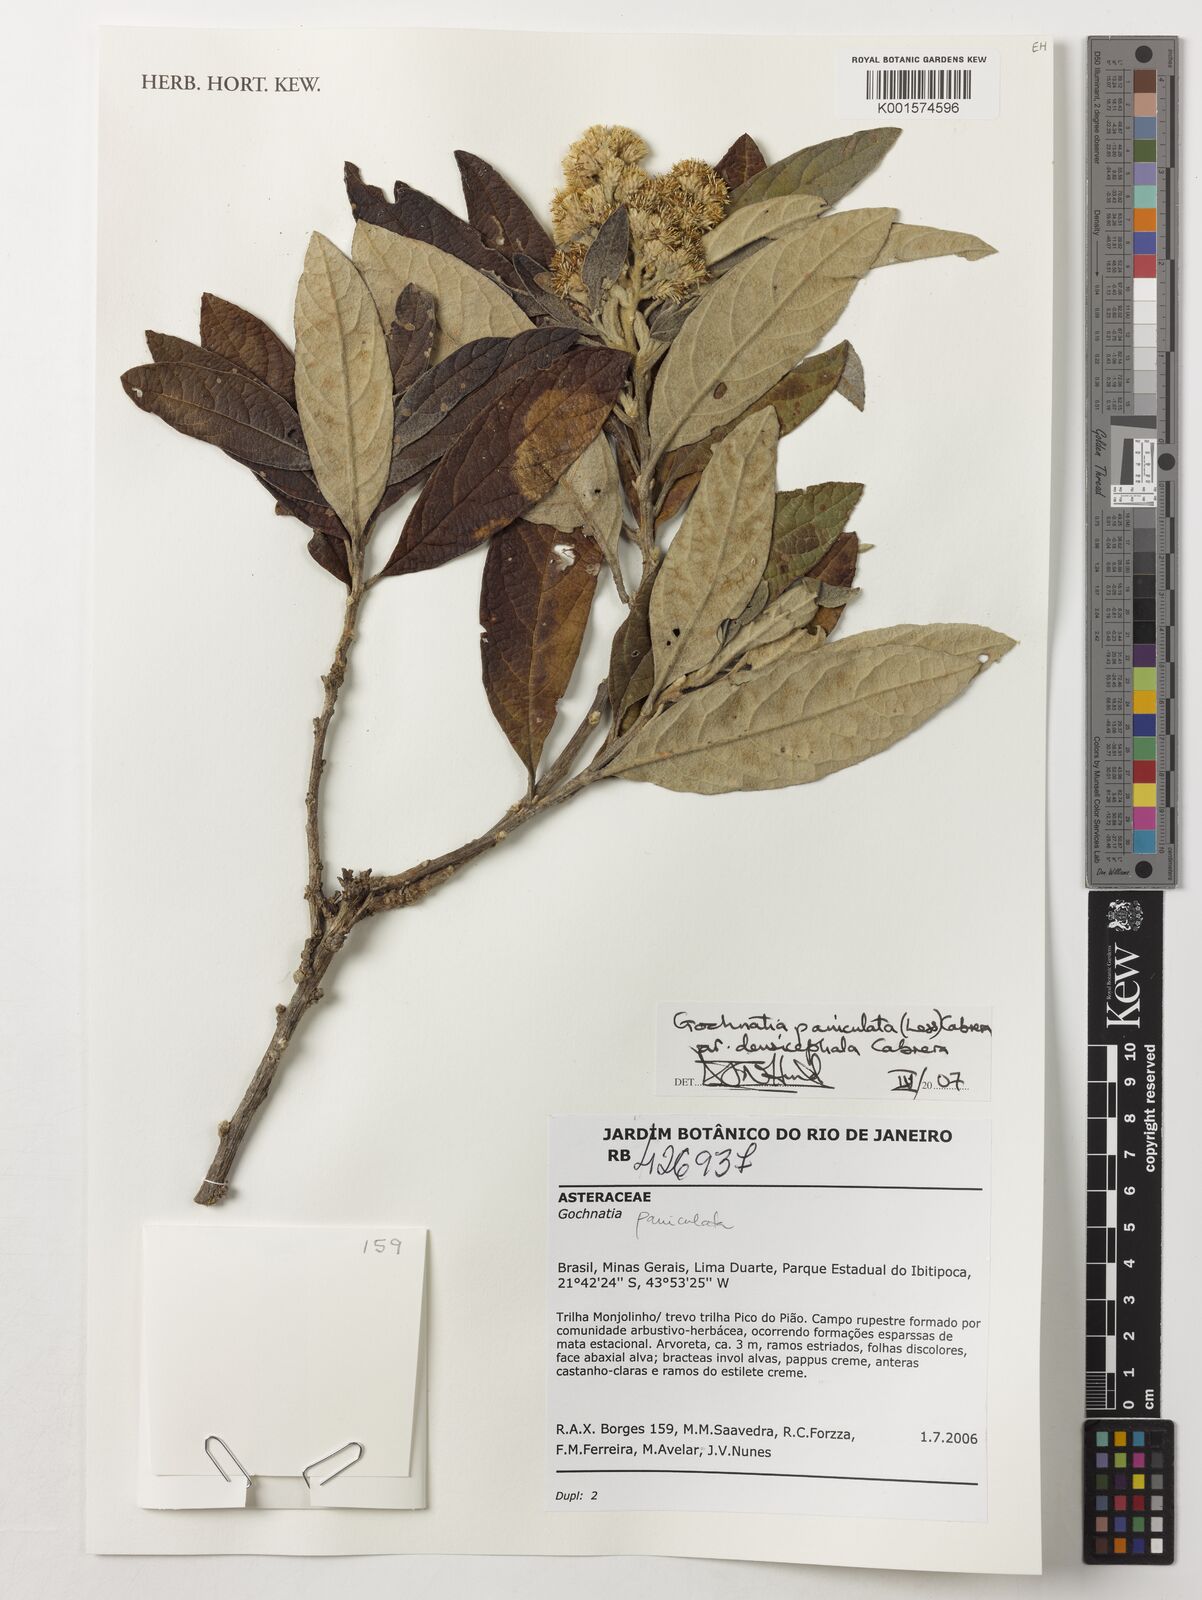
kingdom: Plantae
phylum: Tracheophyta
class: Magnoliopsida
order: Asterales
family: Asteraceae
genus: Moquiniastrum
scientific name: Moquiniastrum densicephalum
